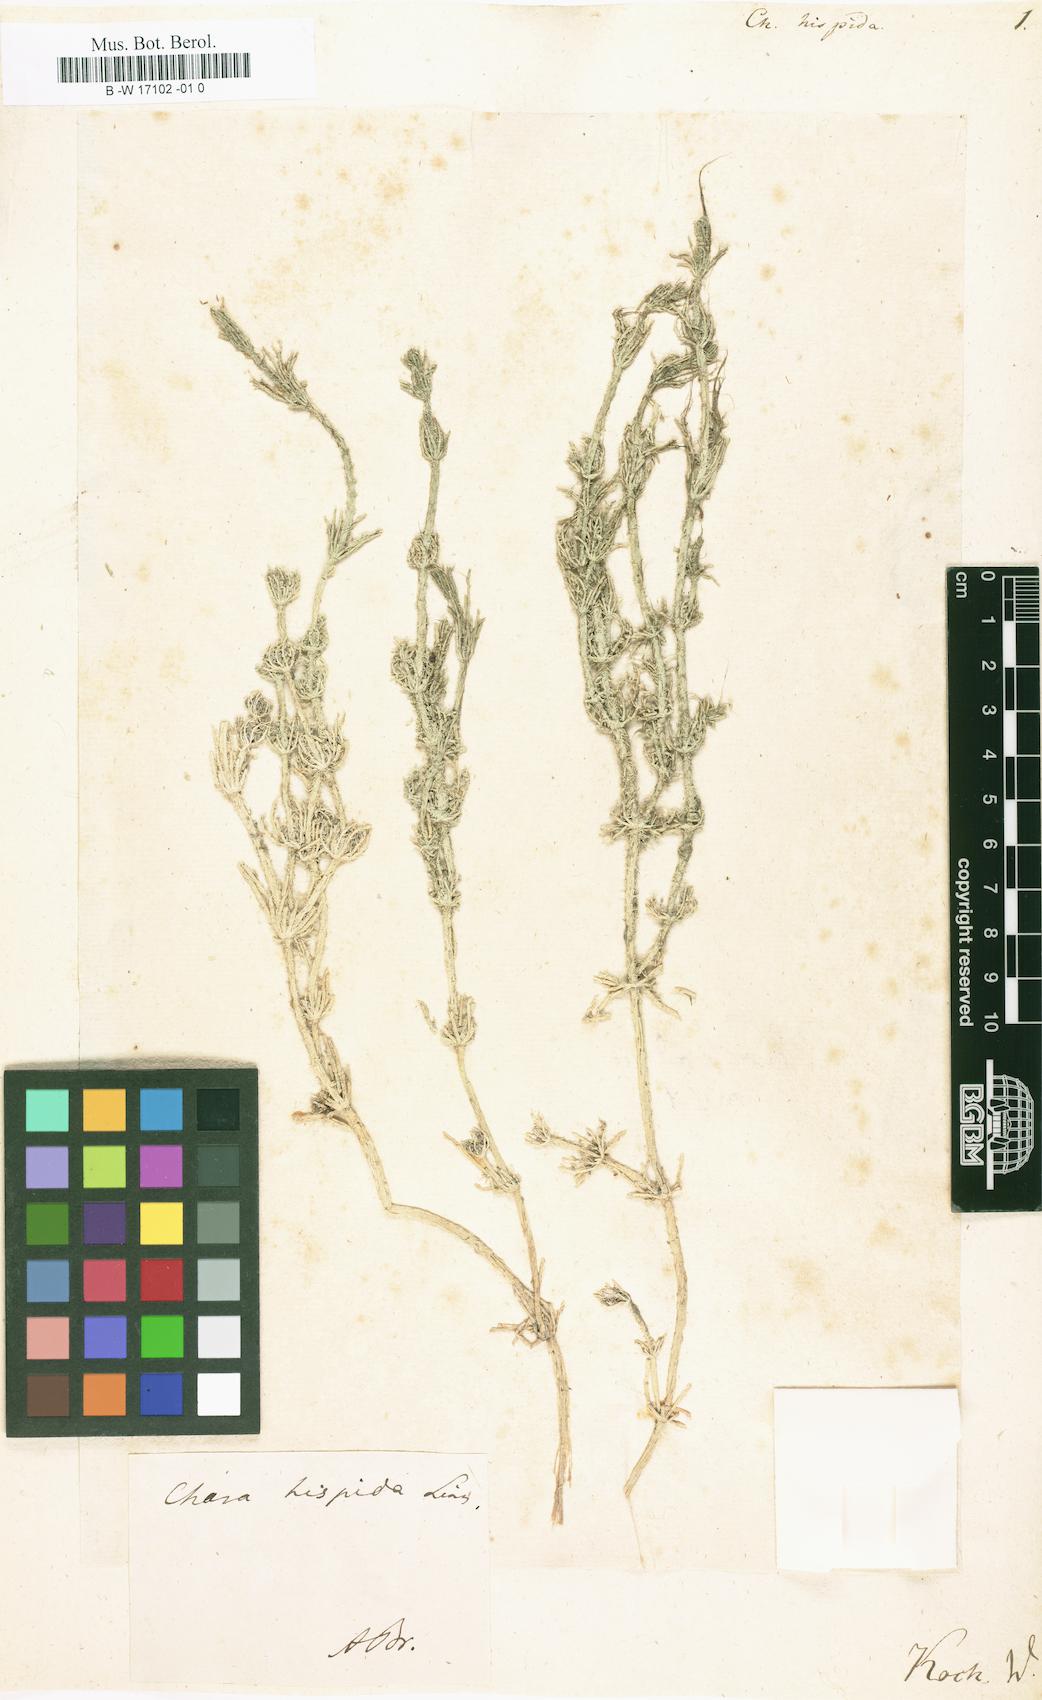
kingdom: Plantae
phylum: Charophyta
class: Charophyceae
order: Charales
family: Characeae
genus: Chara
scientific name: Chara hispida
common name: Bristly stonewort
